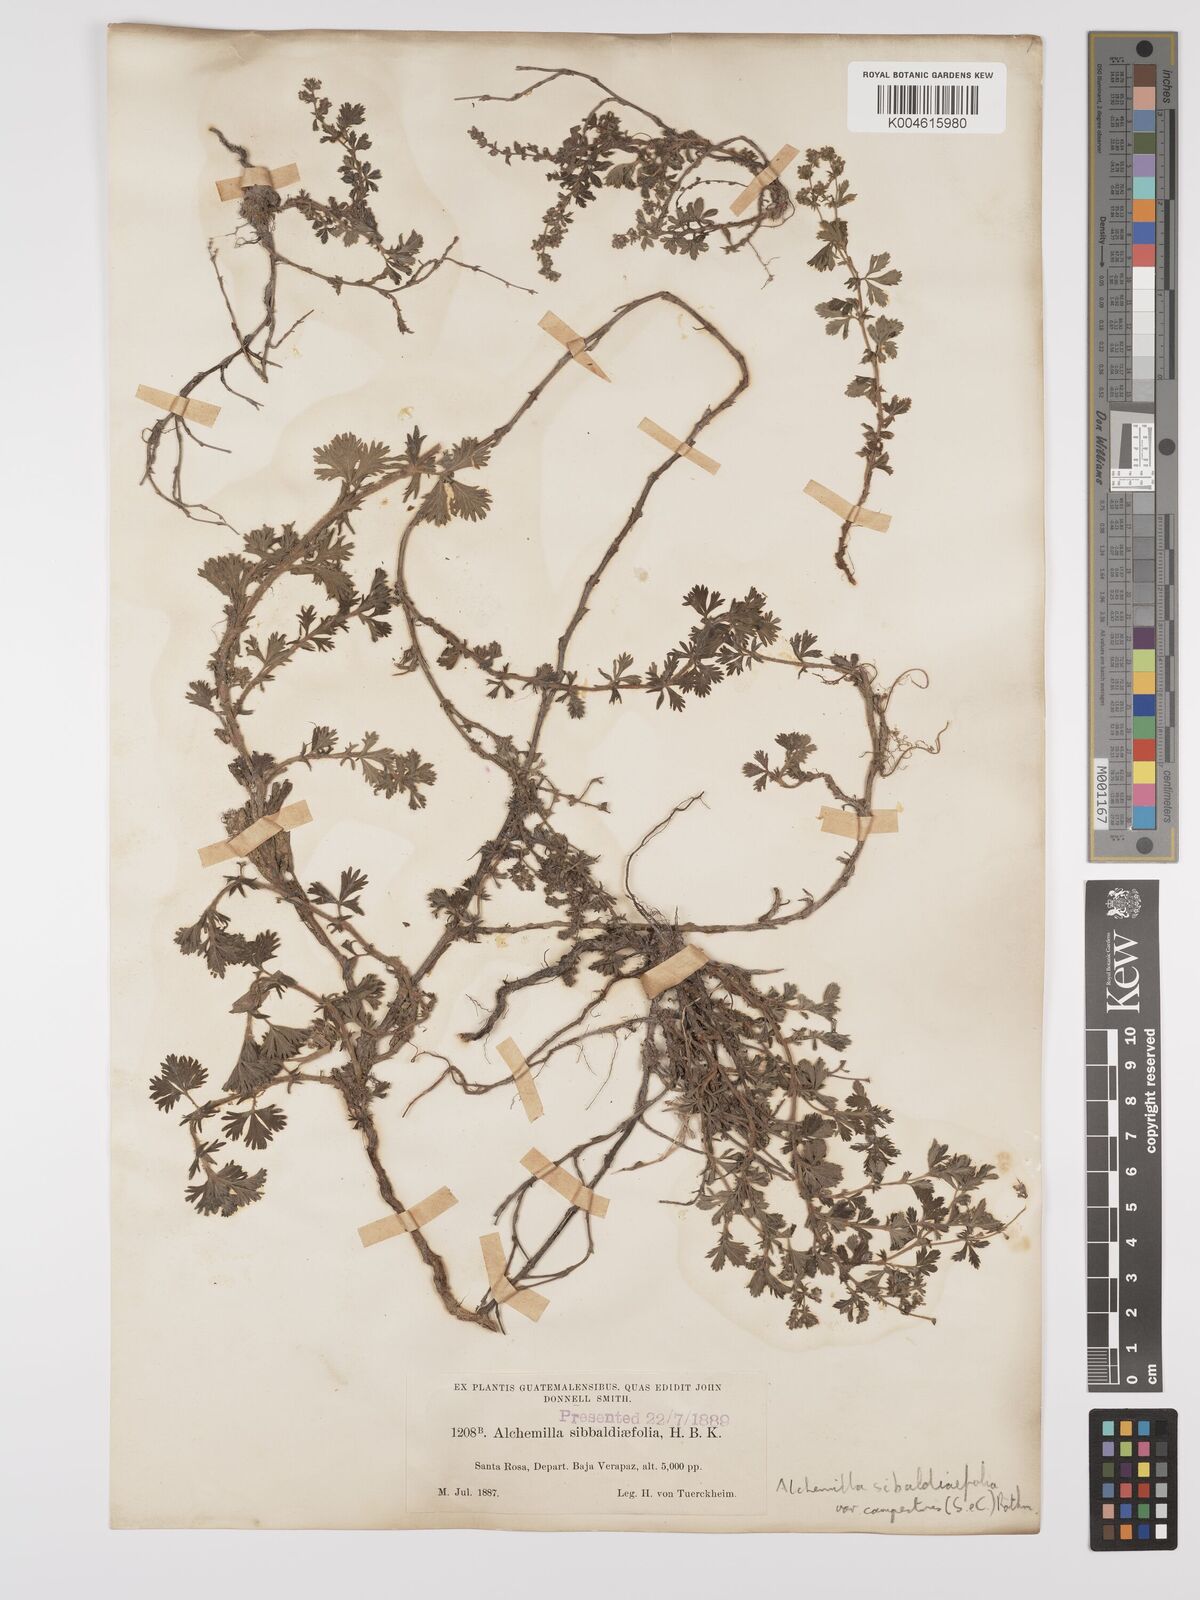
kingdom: Plantae
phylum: Tracheophyta
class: Magnoliopsida
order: Rosales
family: Rosaceae
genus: Lachemilla
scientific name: Lachemilla sibbaldiifolia
